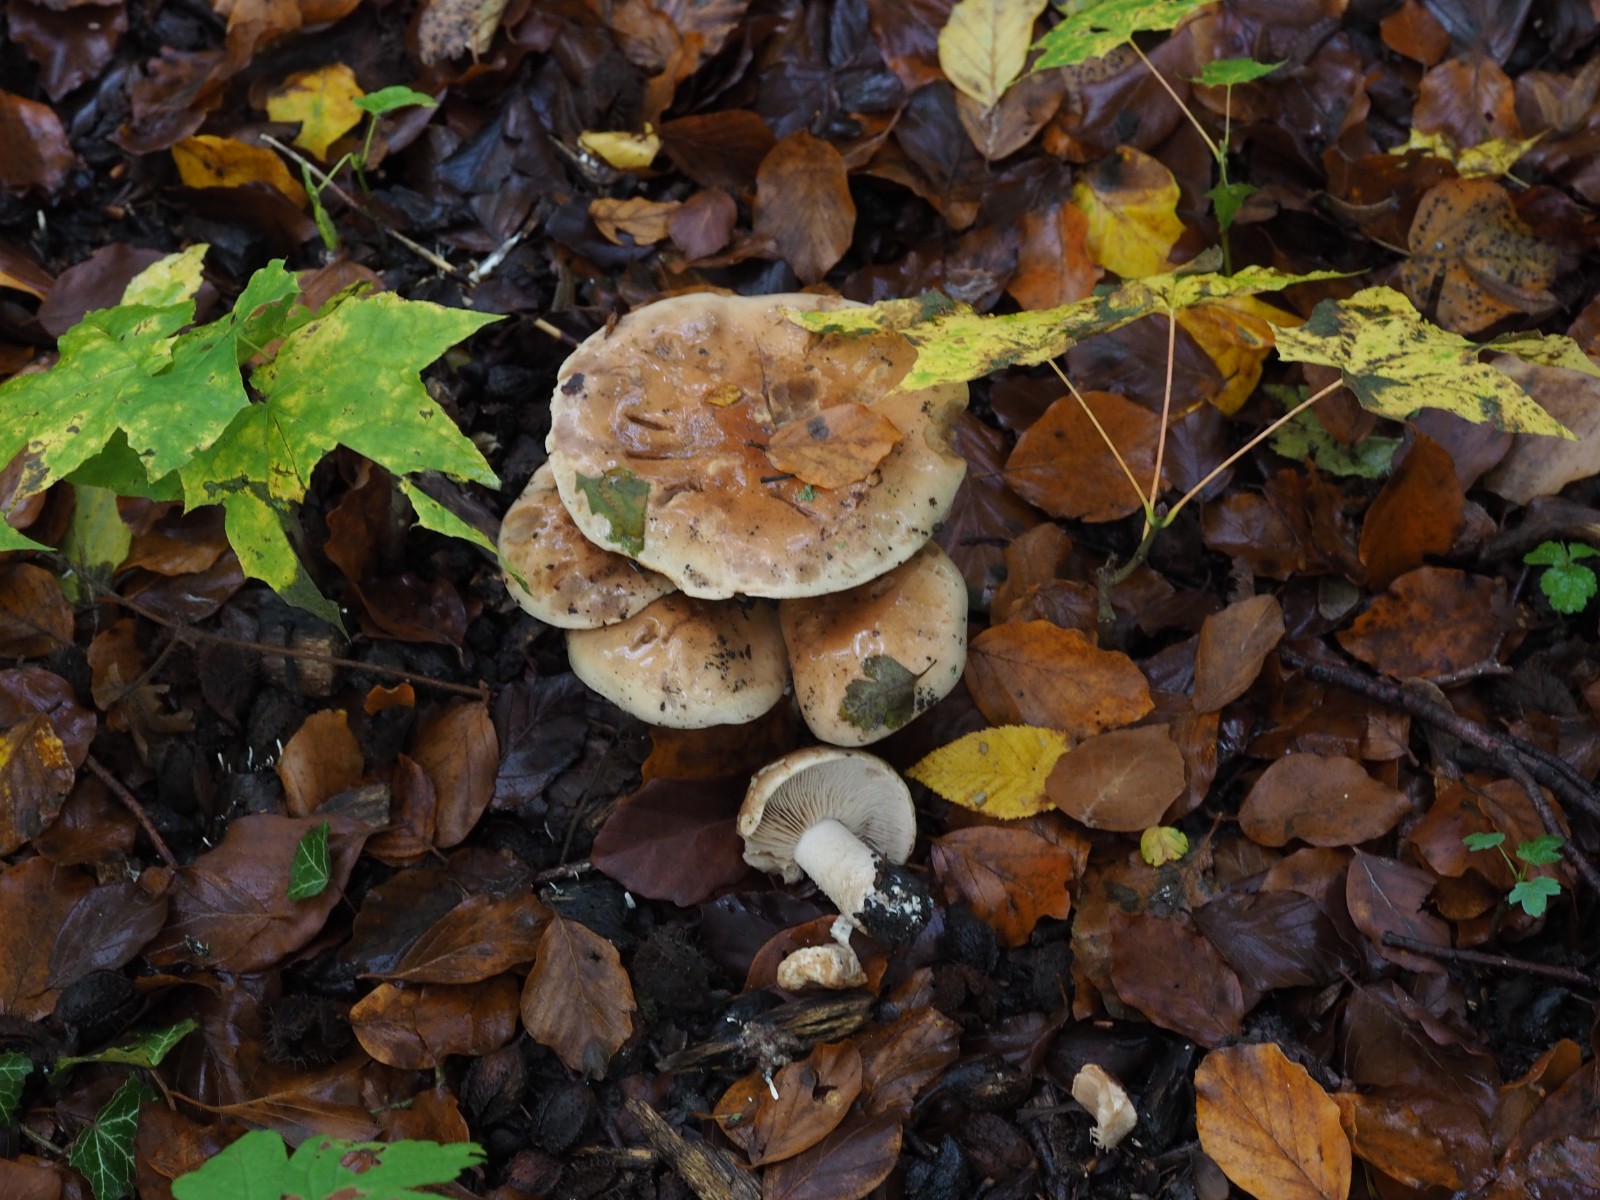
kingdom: Fungi
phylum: Basidiomycota
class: Agaricomycetes
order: Agaricales
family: Hymenogastraceae
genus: Hebeloma
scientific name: Hebeloma sinapizans
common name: ræddike-tåreblad
